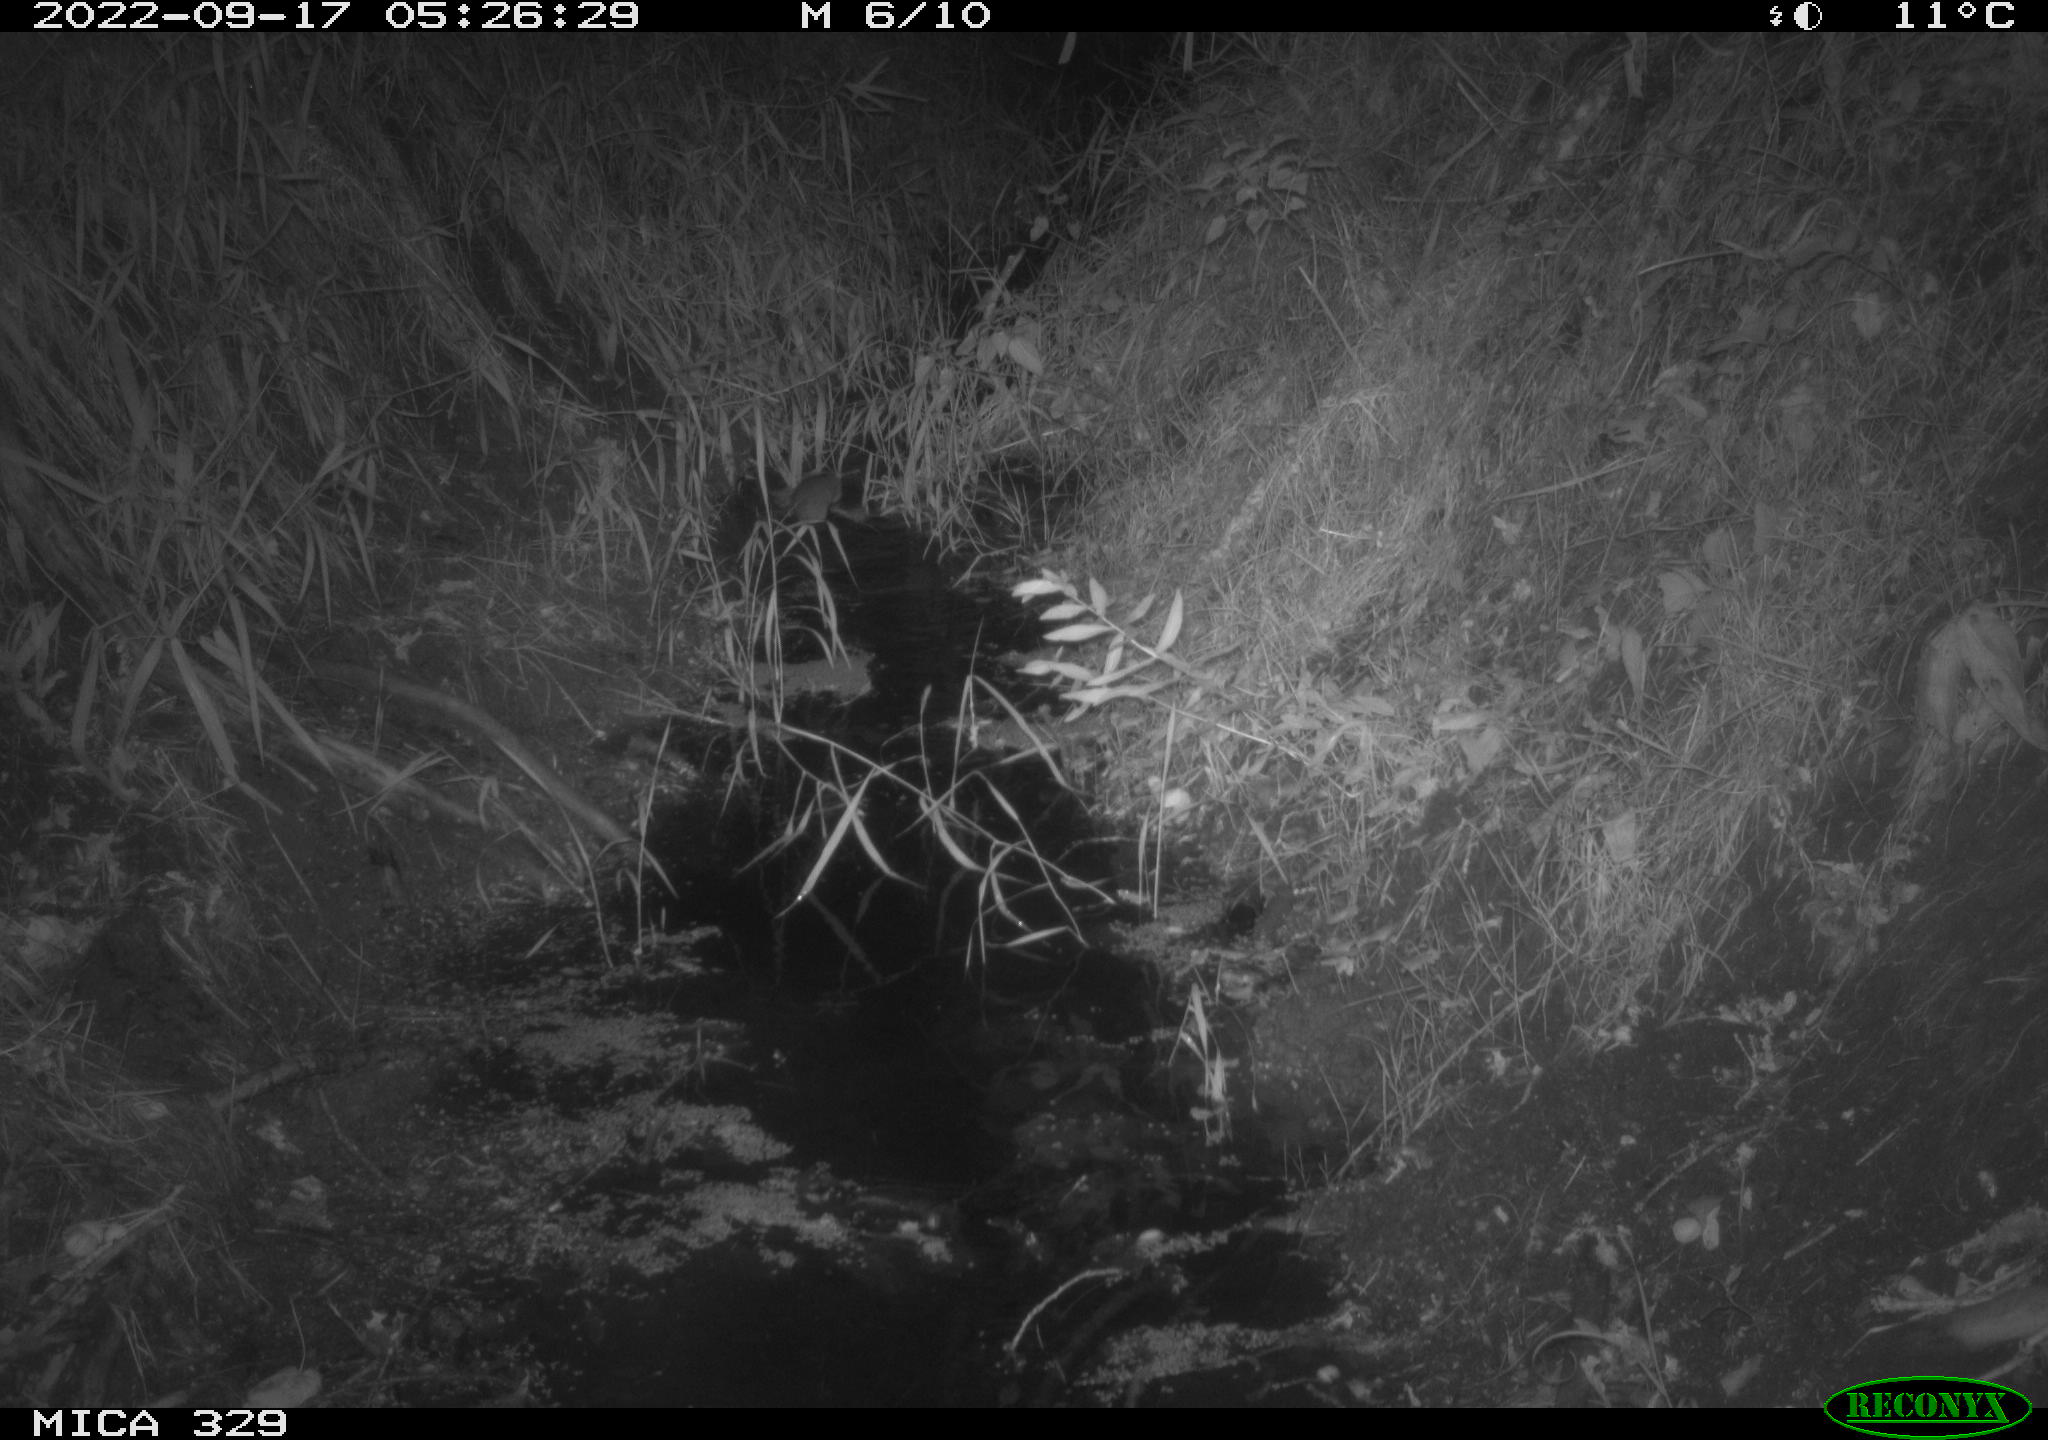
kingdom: Animalia
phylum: Chordata
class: Mammalia
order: Rodentia
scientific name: Rodentia
